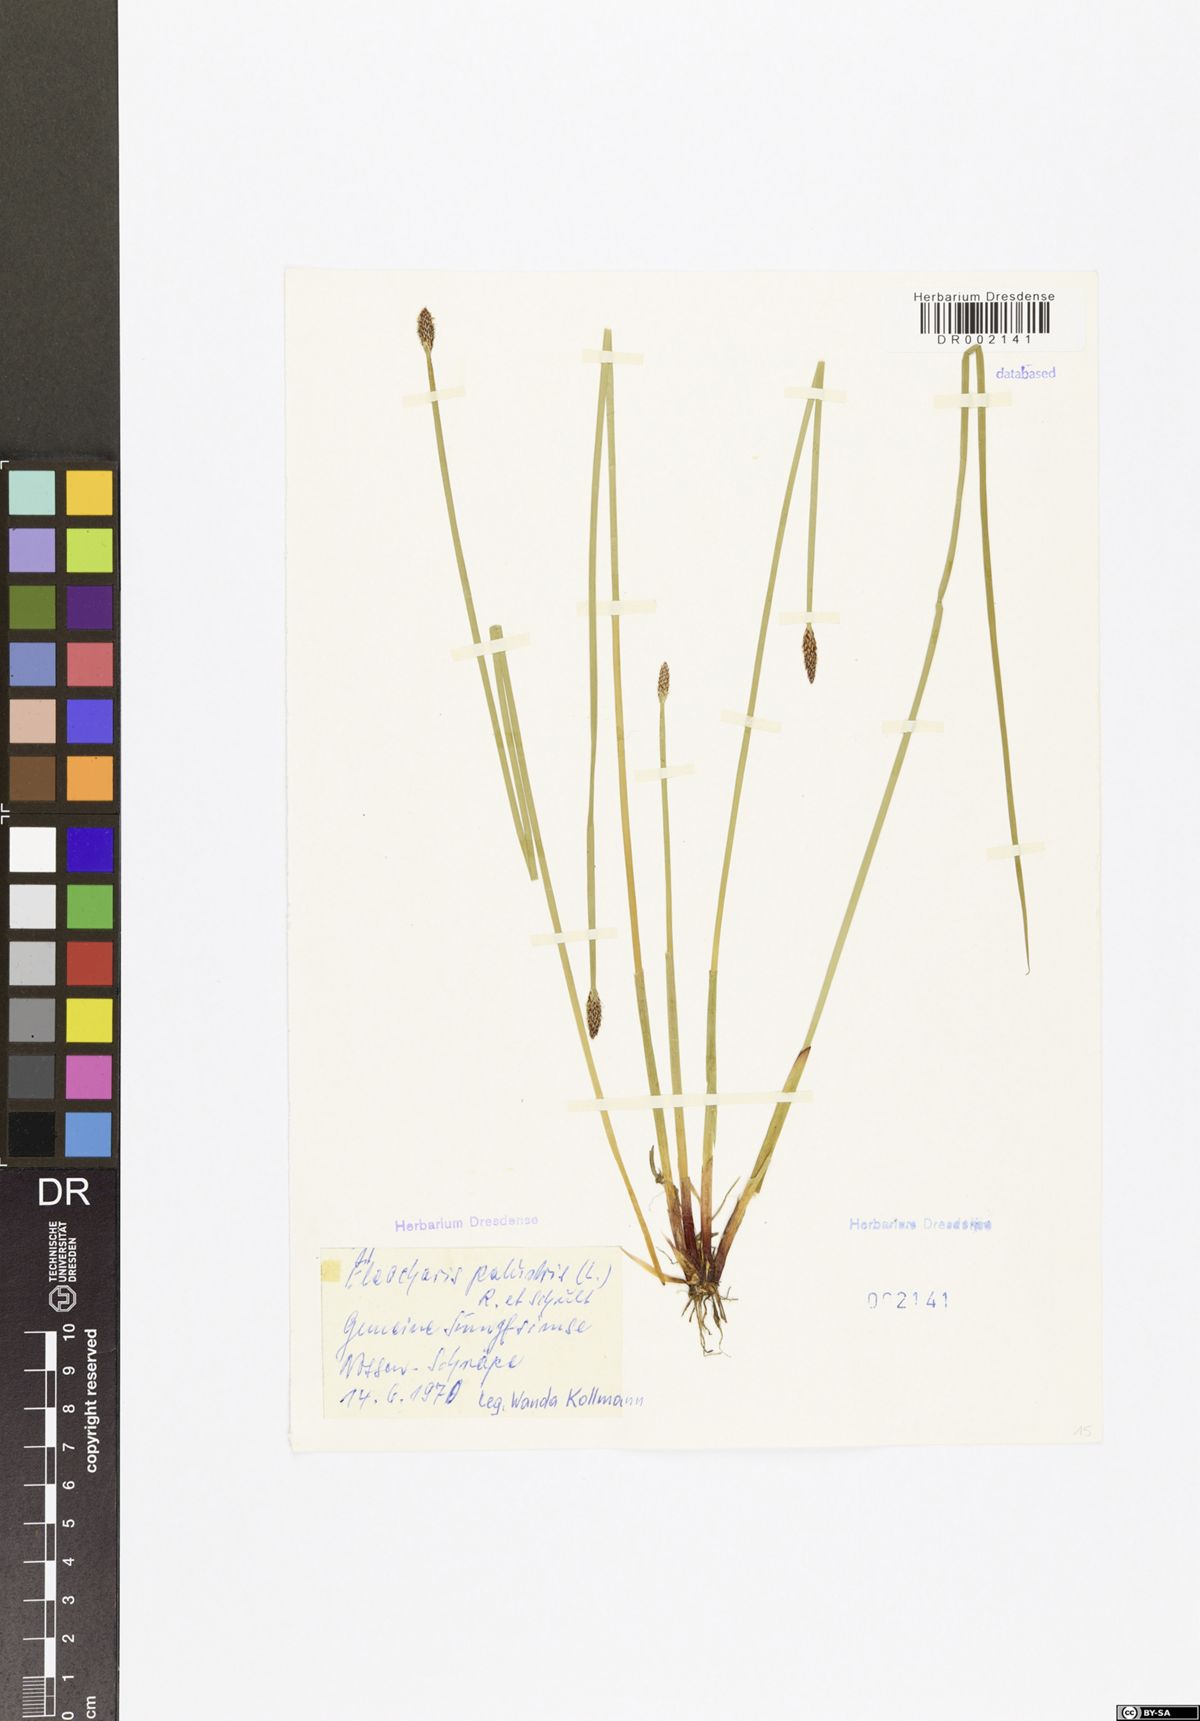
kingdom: Plantae
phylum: Tracheophyta
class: Liliopsida
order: Poales
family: Cyperaceae
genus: Eleocharis
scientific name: Eleocharis palustris
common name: Common spike-rush
